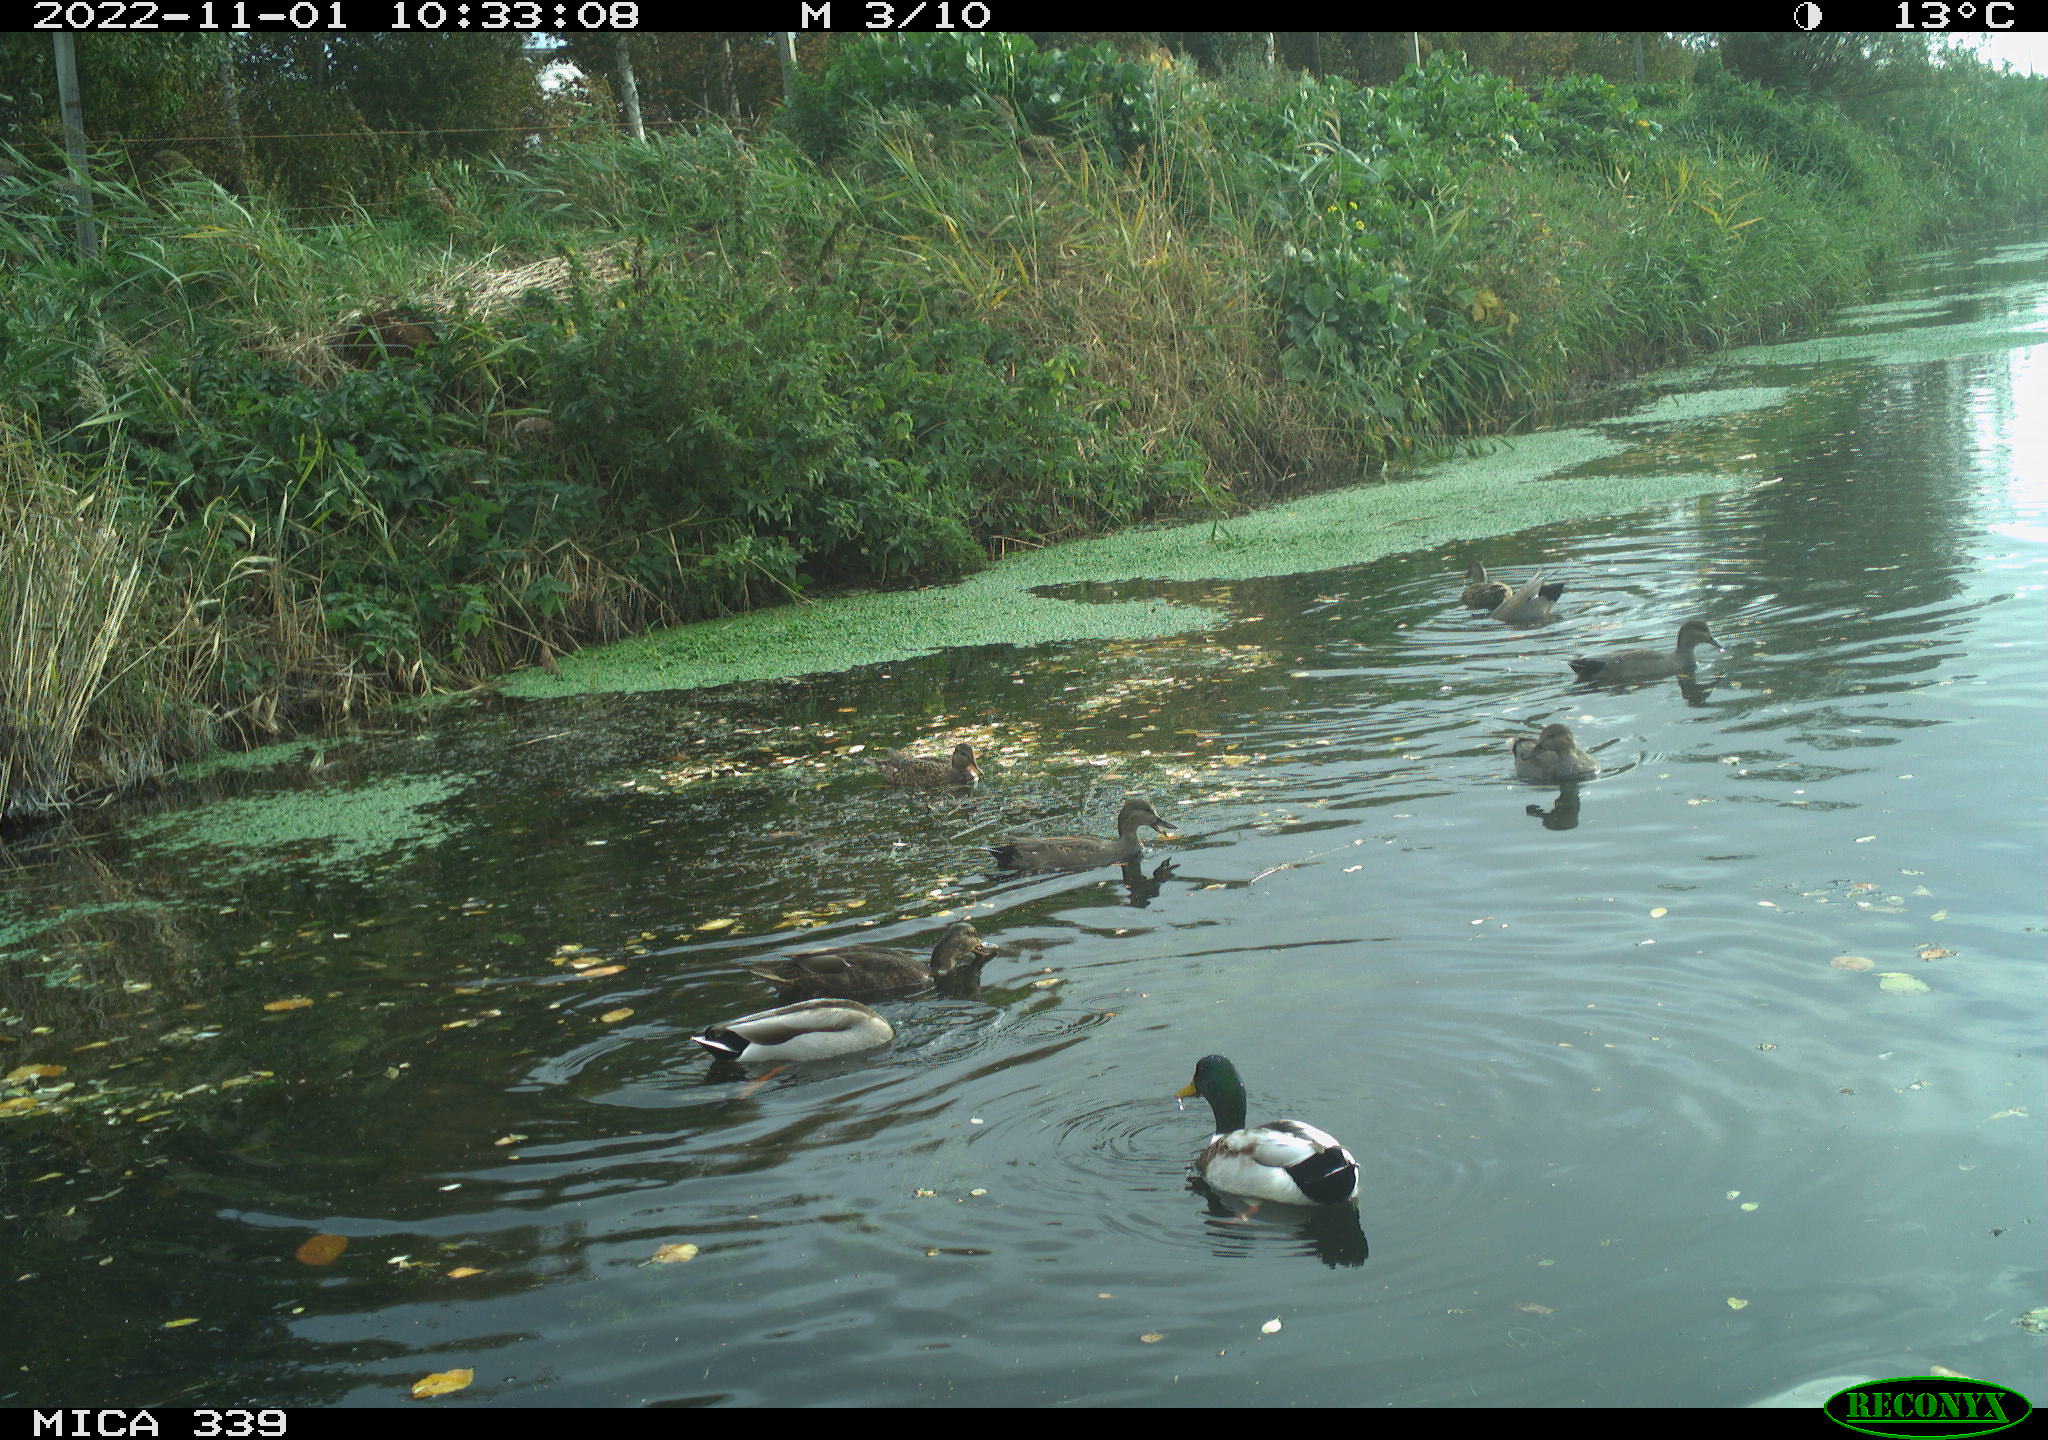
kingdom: Animalia
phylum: Chordata
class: Aves
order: Anseriformes
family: Anatidae
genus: Mareca
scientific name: Mareca strepera
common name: Gadwall
